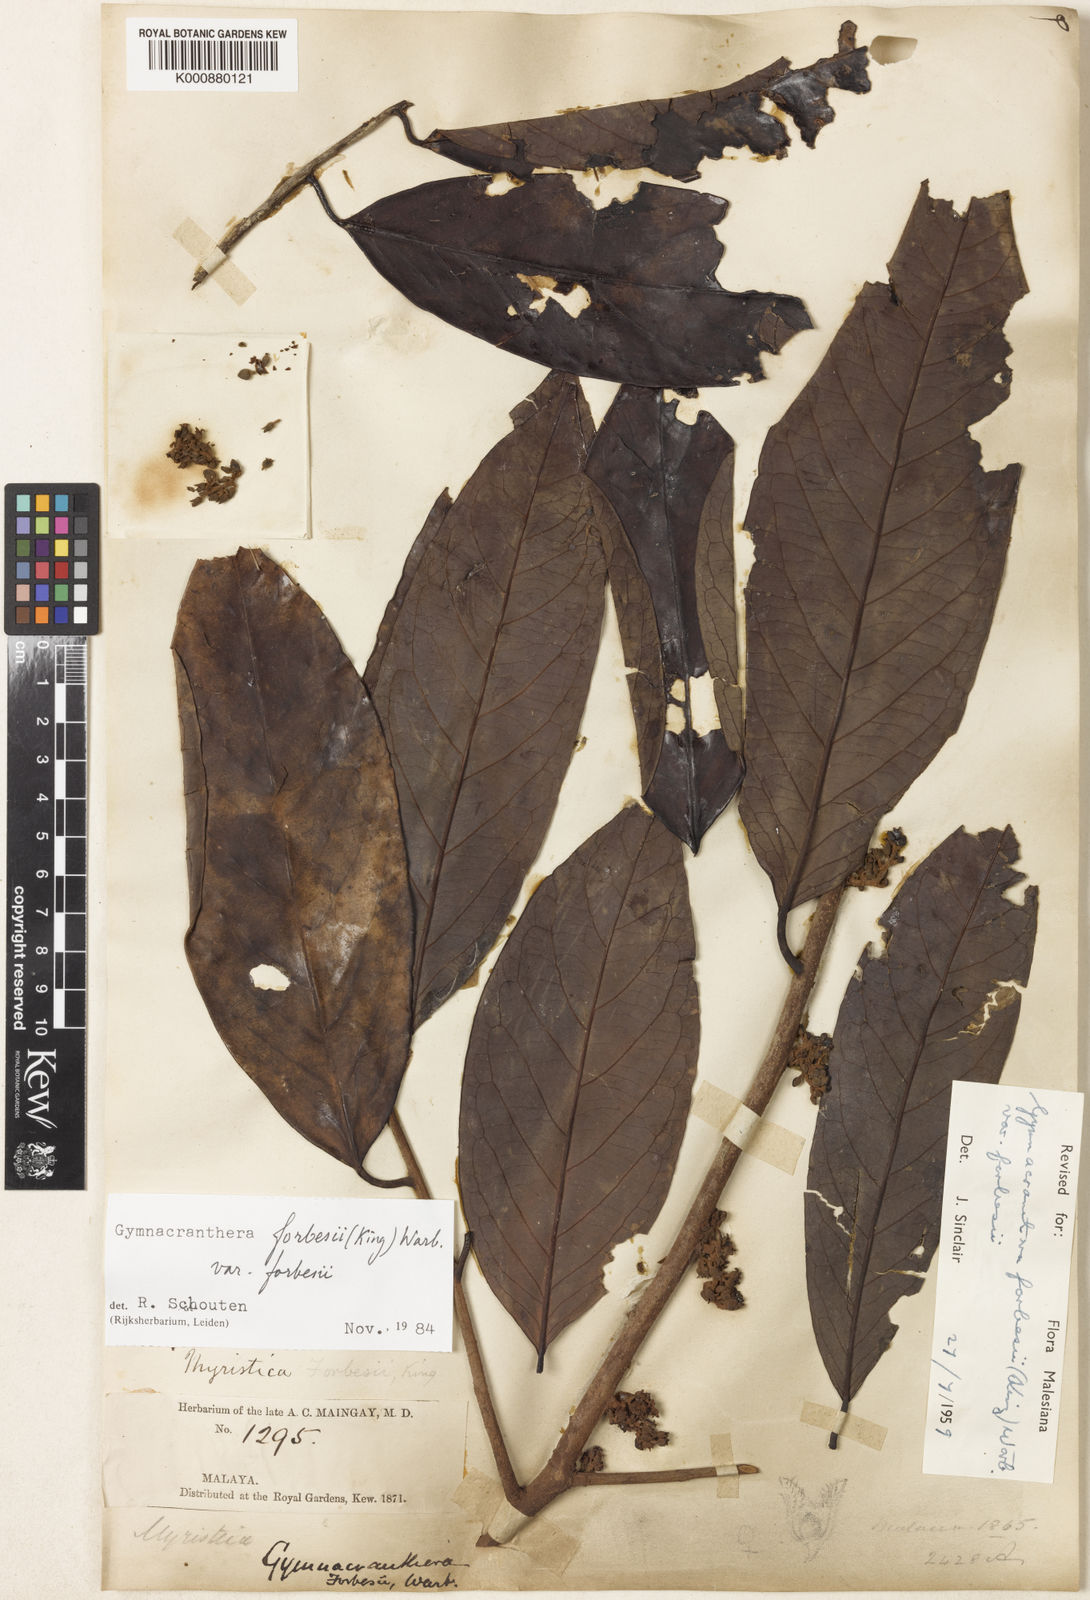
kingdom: Plantae
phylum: Tracheophyta
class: Magnoliopsida
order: Magnoliales
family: Myristicaceae
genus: Gymnacranthera
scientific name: Gymnacranthera forbesii
